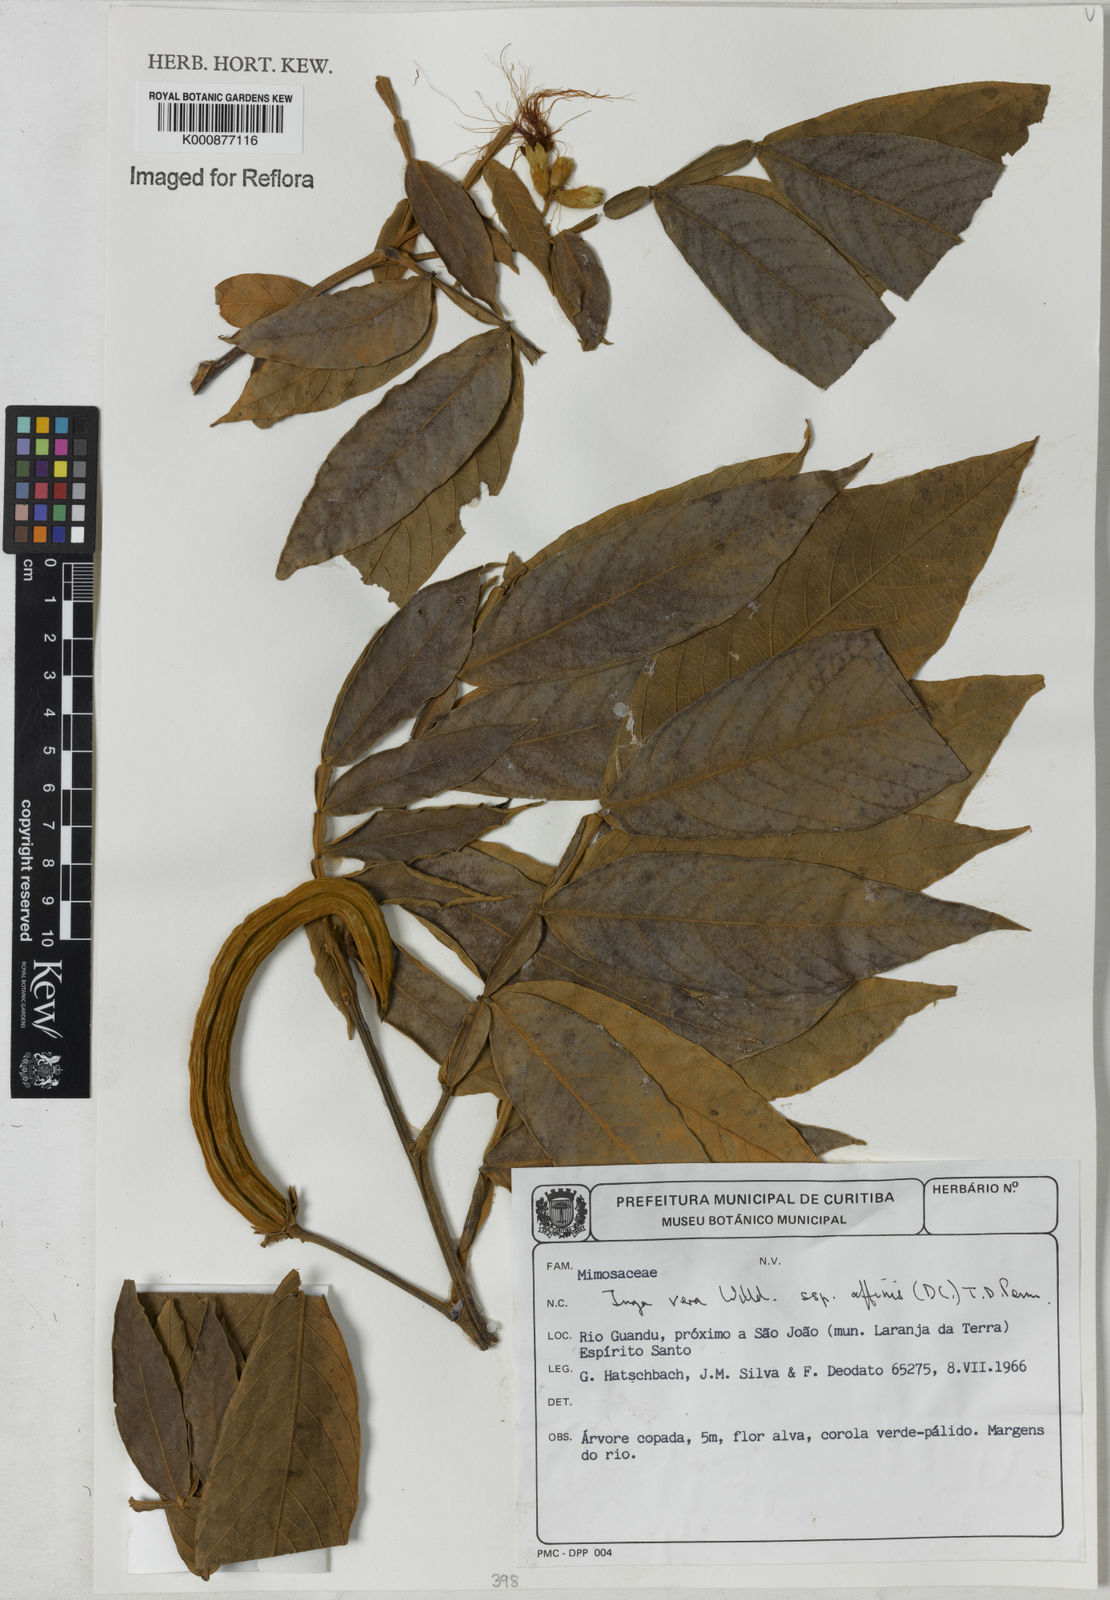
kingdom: Plantae
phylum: Tracheophyta
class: Magnoliopsida
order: Fabales
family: Fabaceae
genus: Inga
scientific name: Inga affinis
